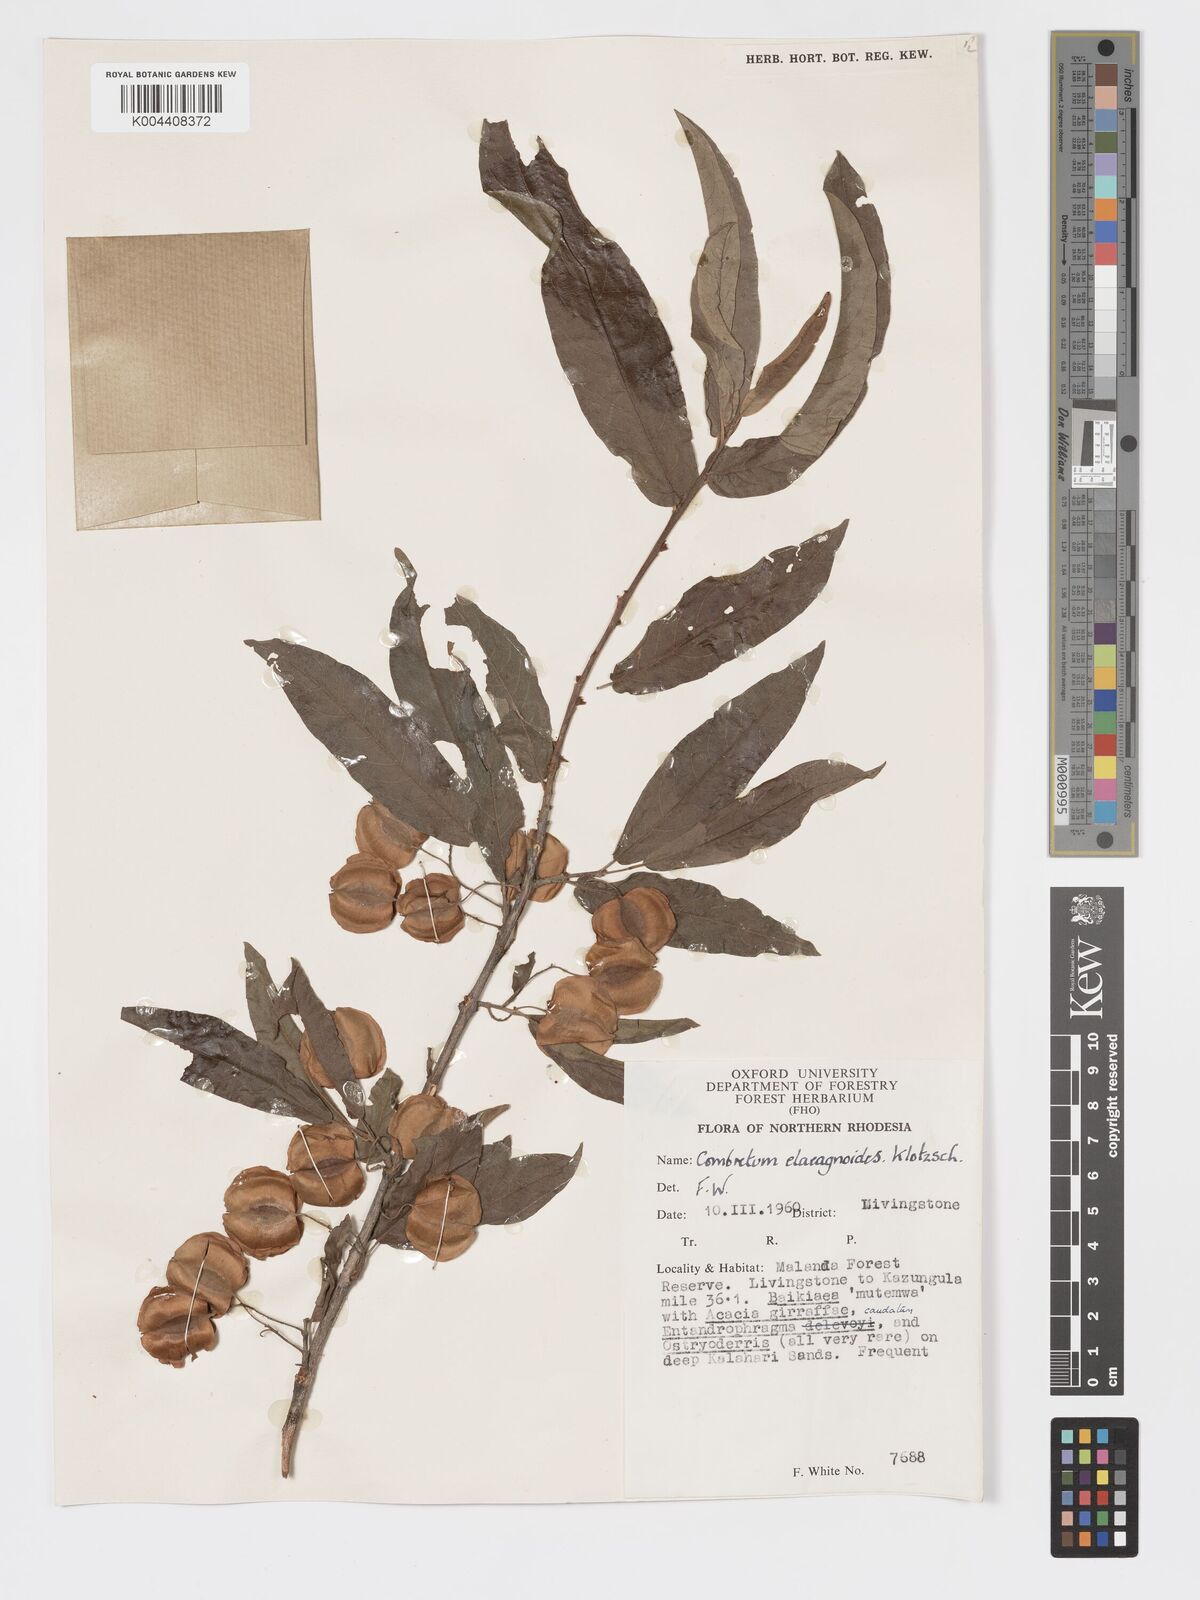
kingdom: Plantae
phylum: Tracheophyta
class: Magnoliopsida
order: Myrtales
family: Combretaceae
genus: Combretum
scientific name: Combretum elaeagnoides
